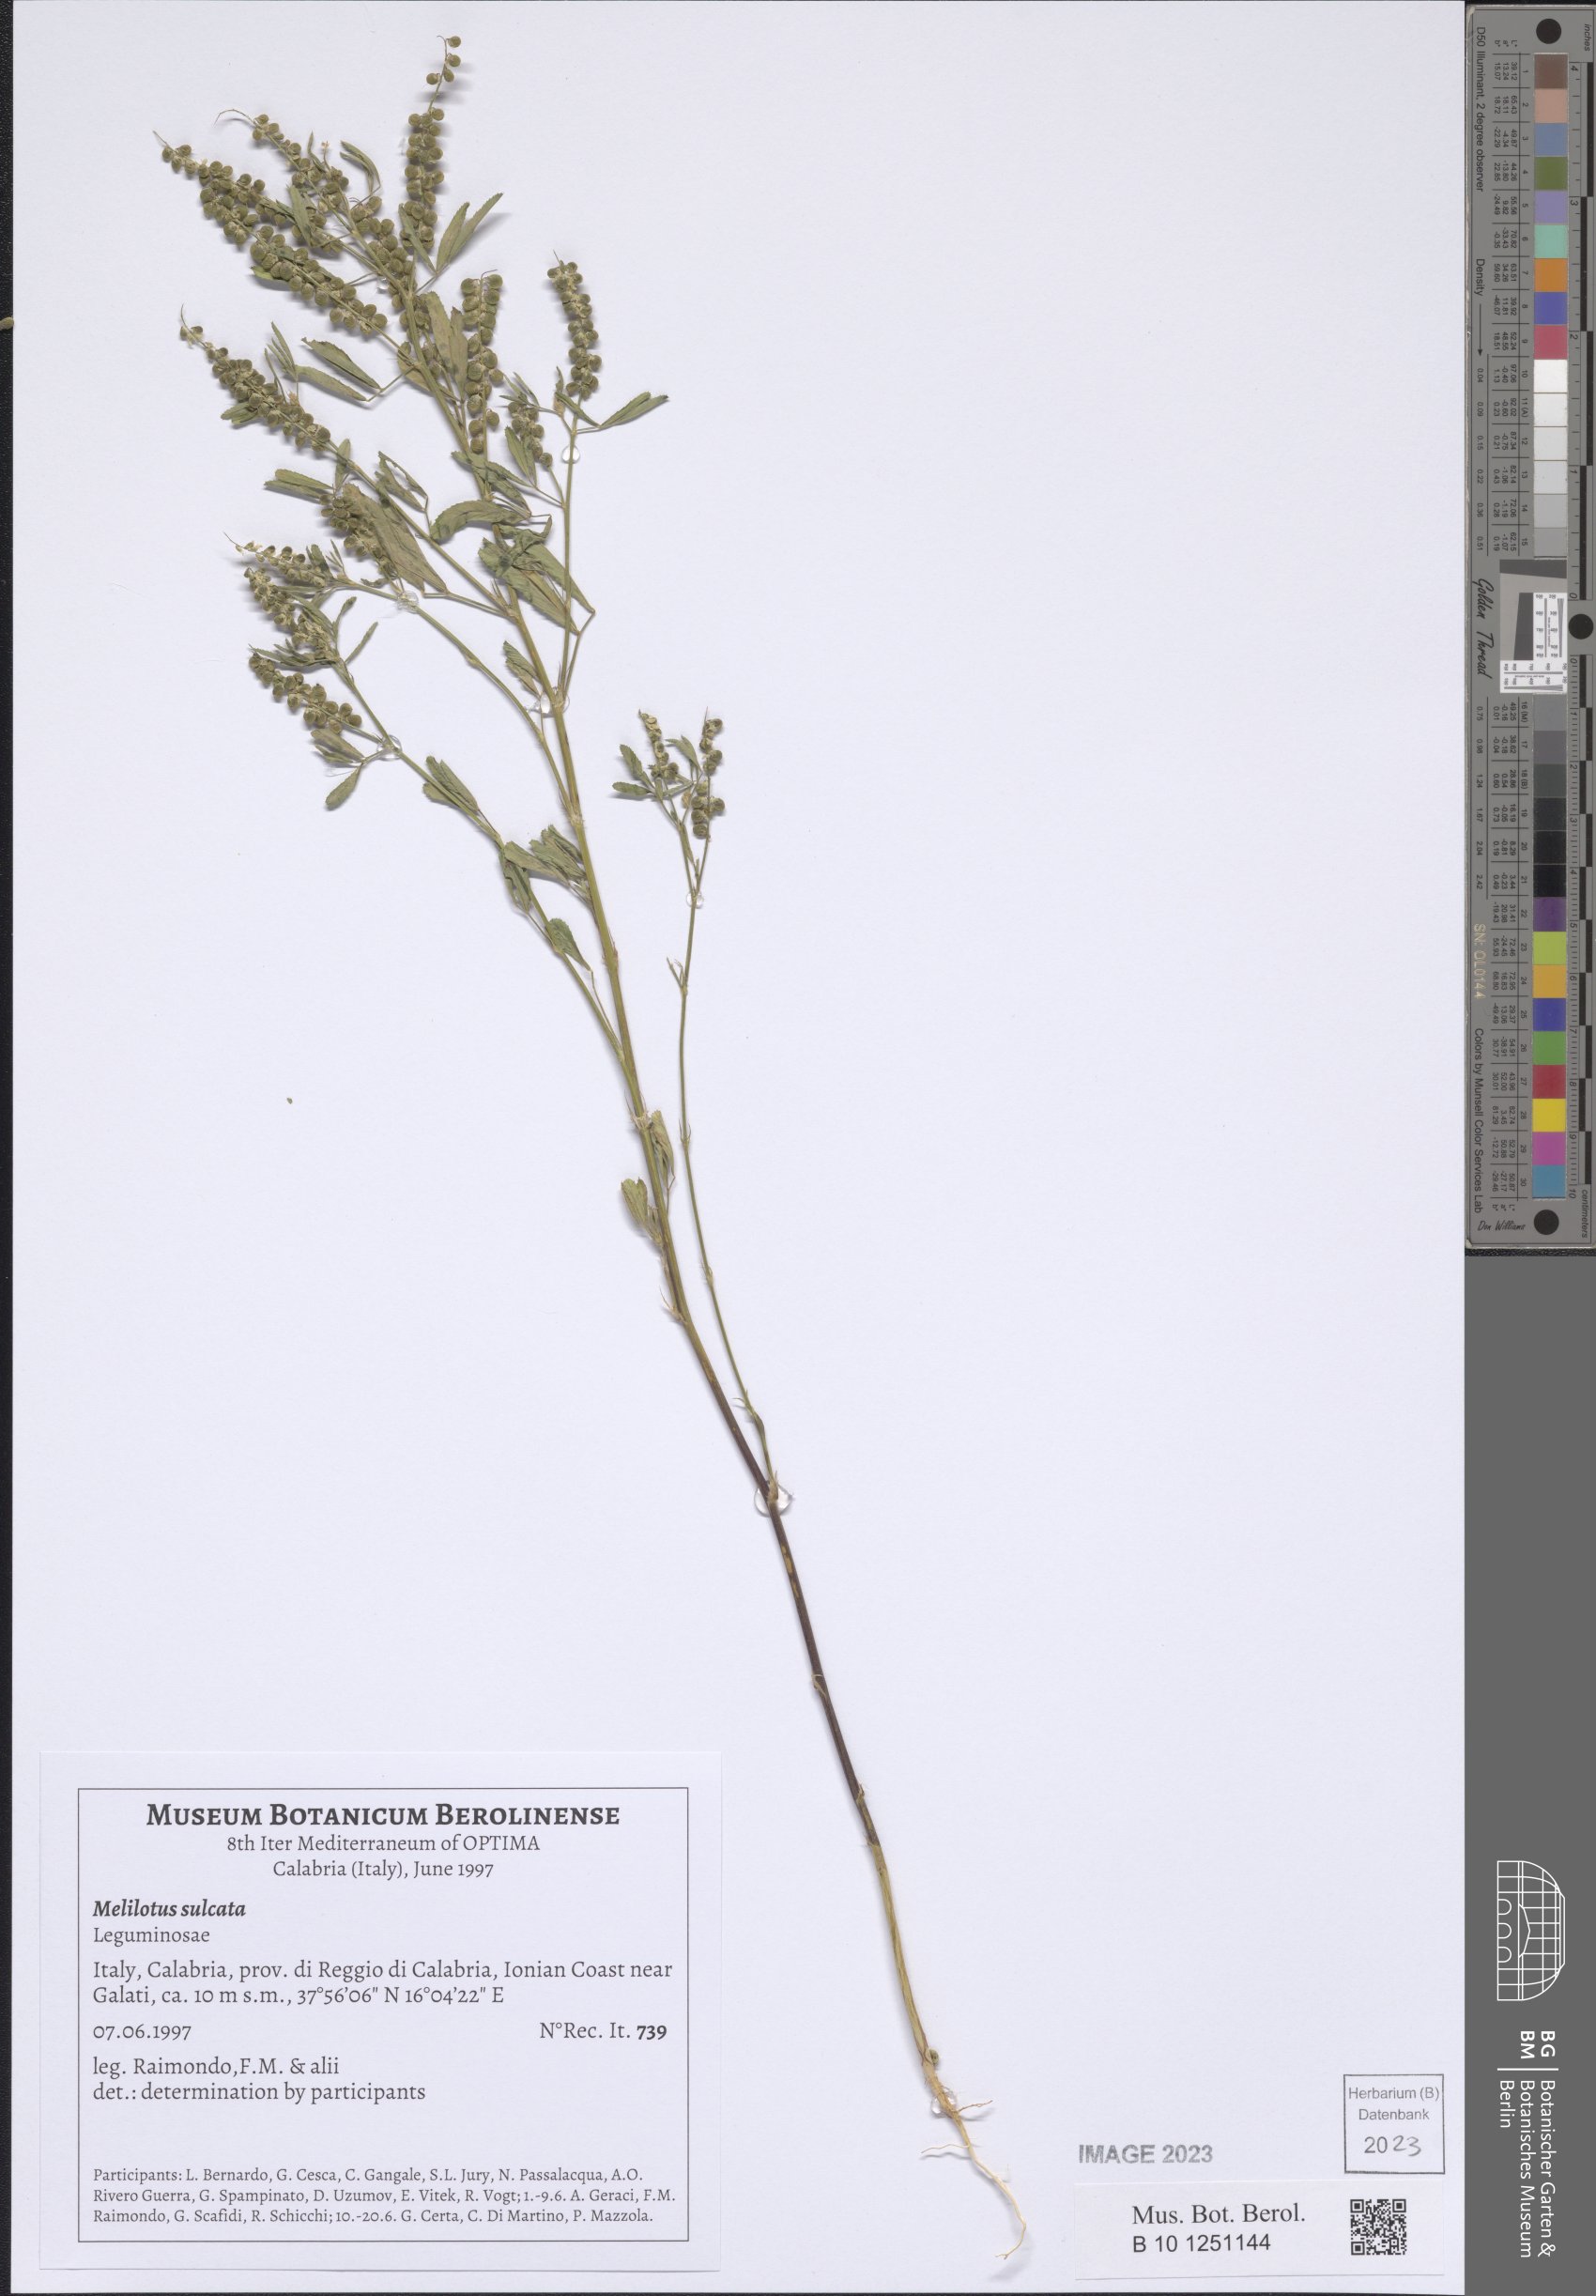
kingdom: Plantae
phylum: Tracheophyta
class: Magnoliopsida
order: Fabales
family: Fabaceae
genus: Melilotus
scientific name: Melilotus sulcatus
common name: Furrowed melilot
